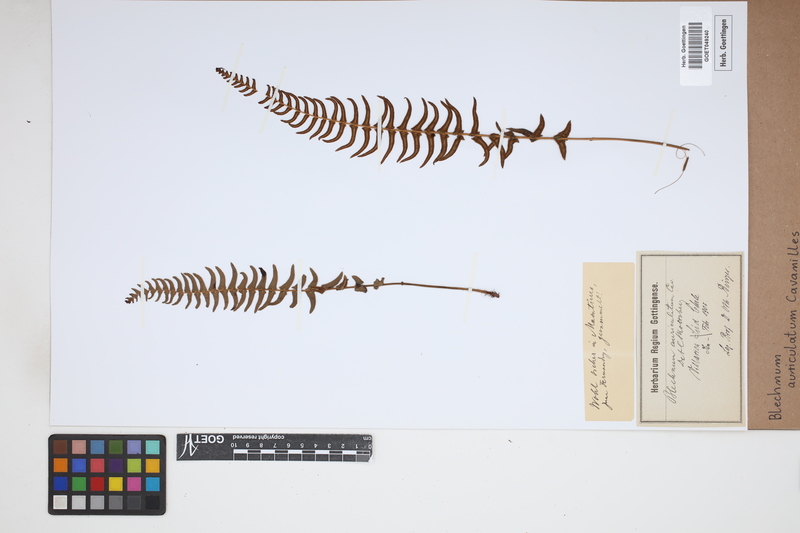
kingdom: Plantae
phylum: Tracheophyta
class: Polypodiopsida
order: Polypodiales
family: Blechnaceae
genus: Blechnum
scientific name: Blechnum auriculatum
